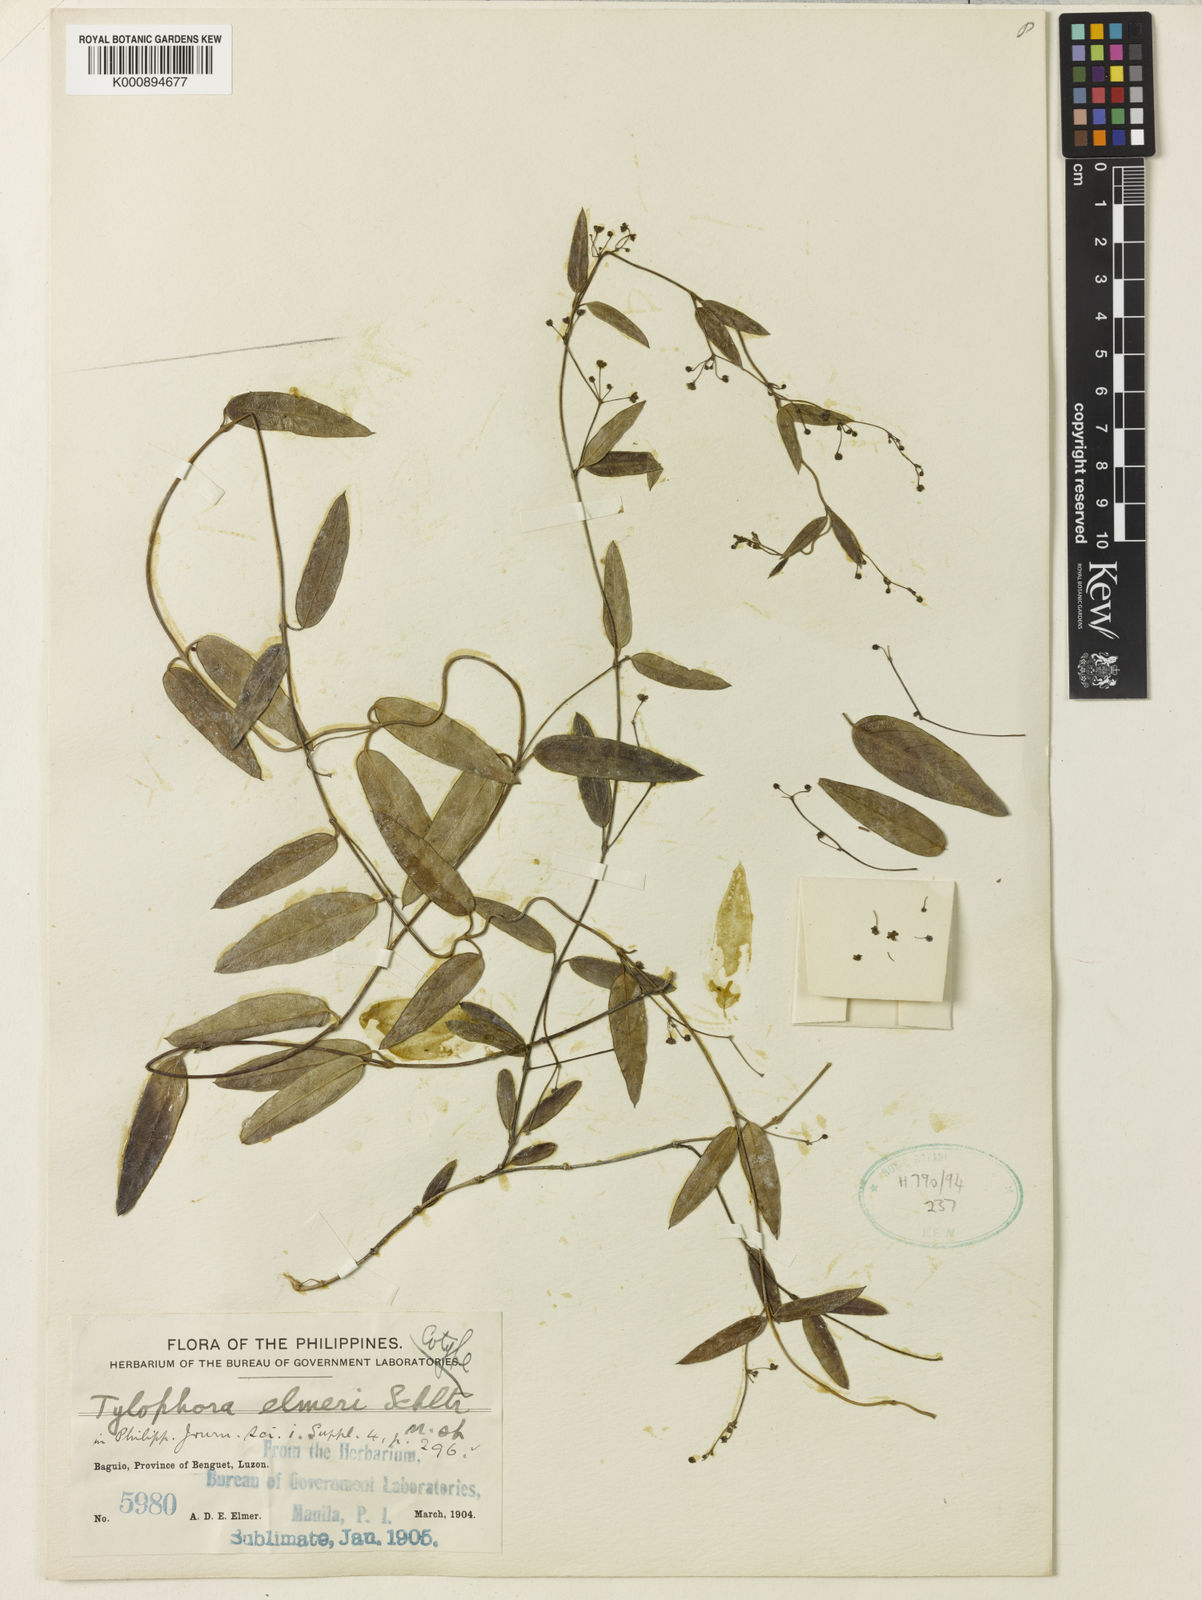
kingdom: Plantae
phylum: Tracheophyta
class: Magnoliopsida
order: Gentianales
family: Apocynaceae
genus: Vincetoxicum
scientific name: Vincetoxicum elmeri
